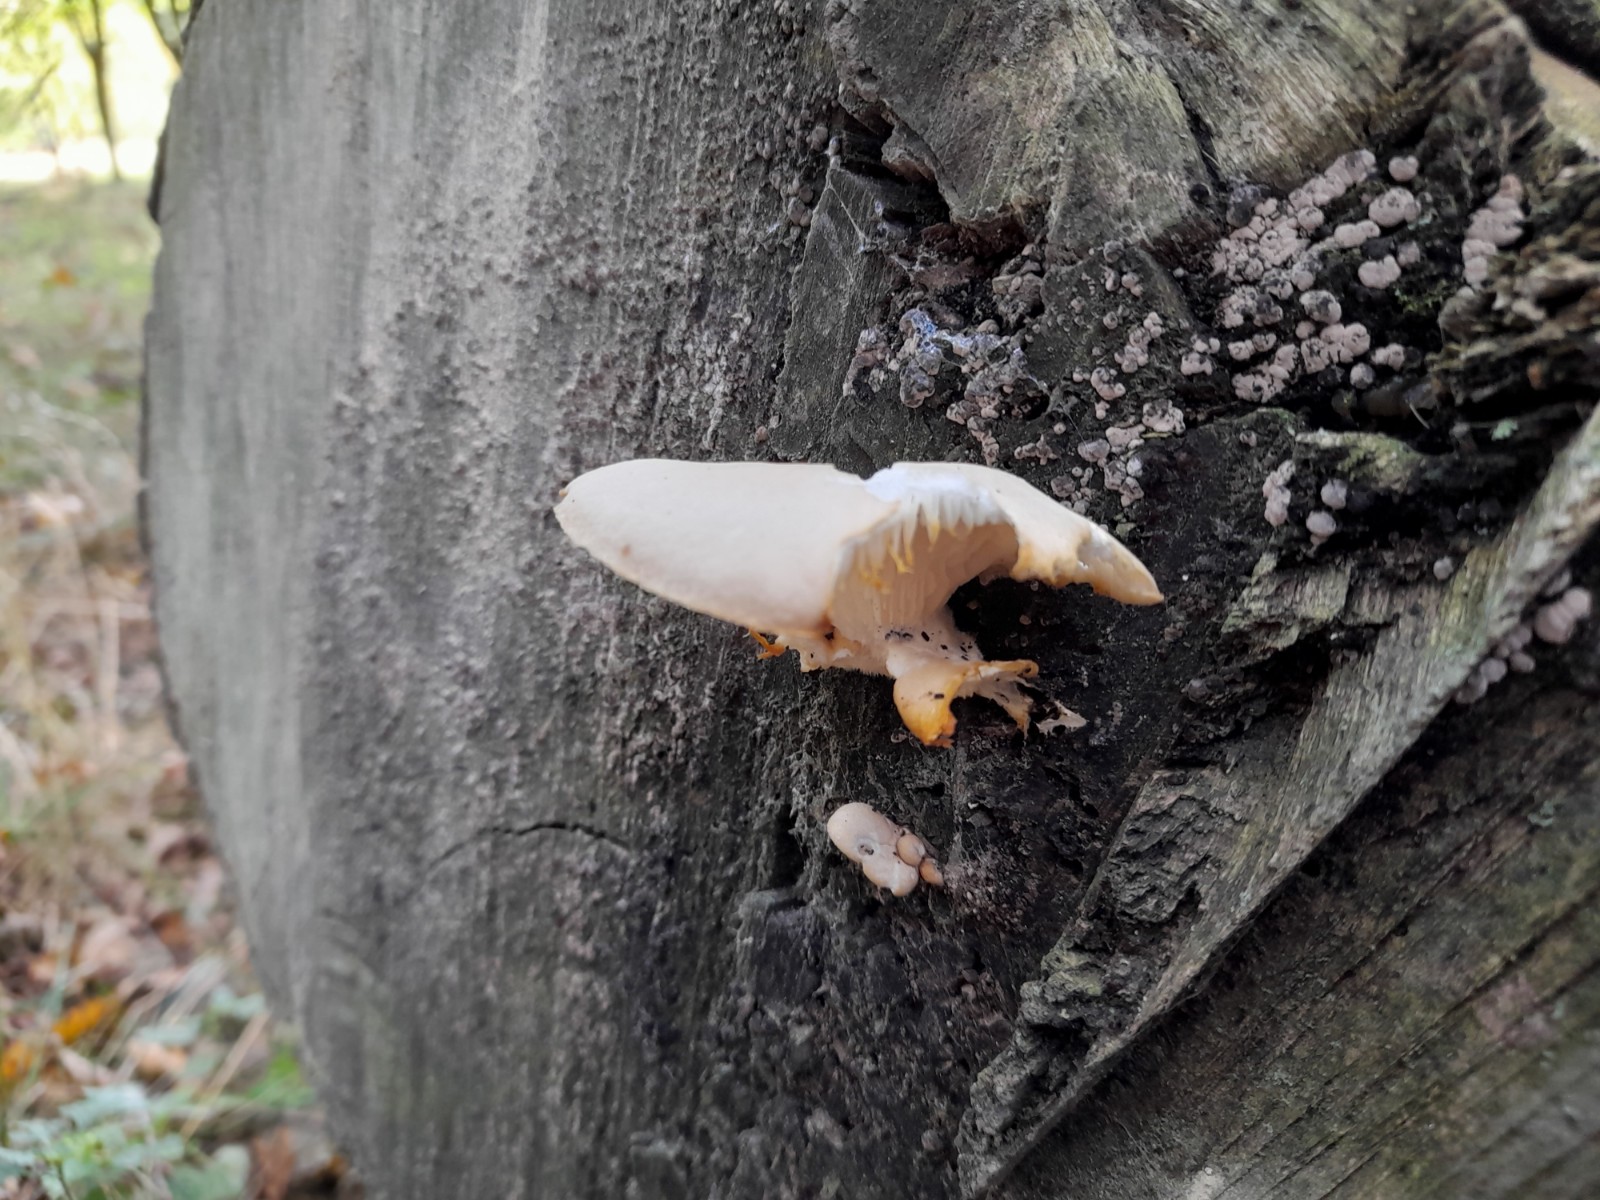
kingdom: Fungi
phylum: Basidiomycota
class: Agaricomycetes
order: Agaricales
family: Pleurotaceae
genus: Pleurotus
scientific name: Pleurotus pulmonarius
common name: sommer-østershat
